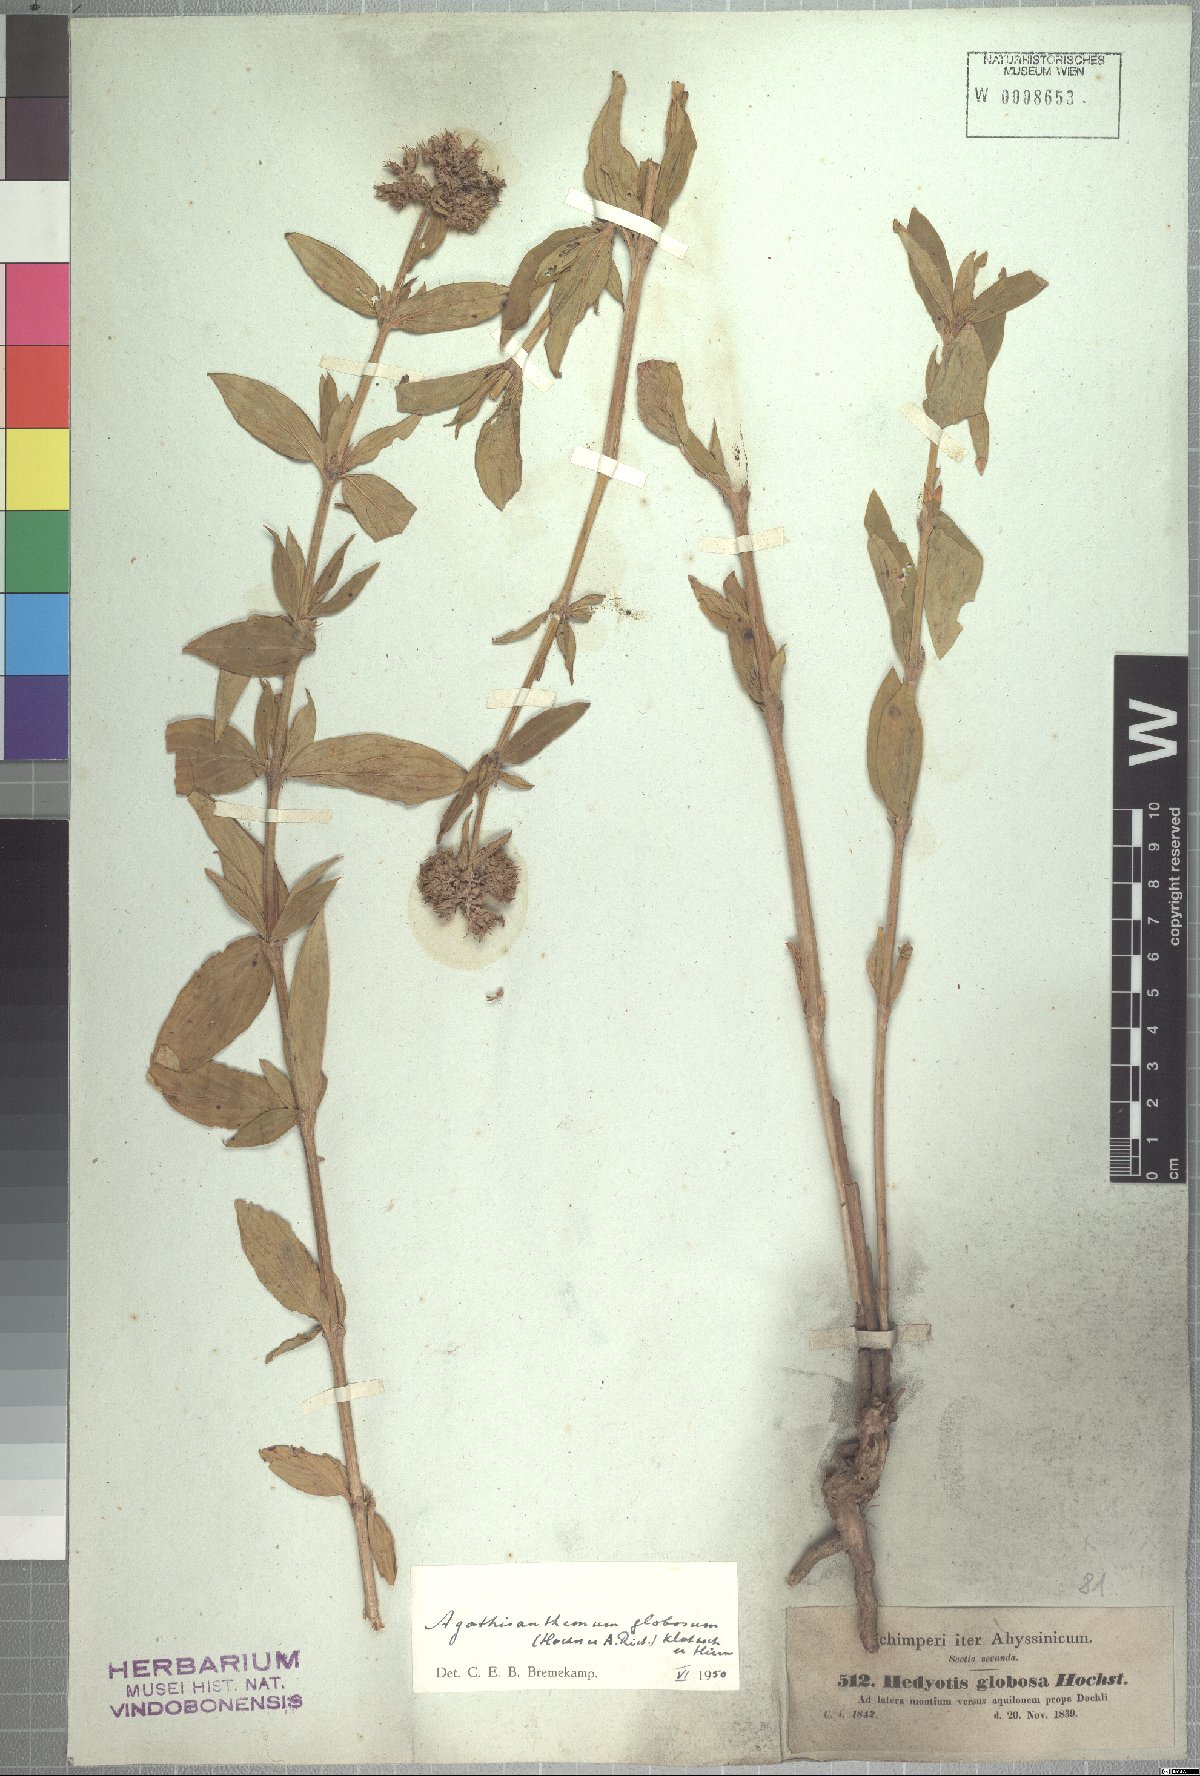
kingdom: Plantae
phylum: Tracheophyta
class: Magnoliopsida
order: Gentianales
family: Rubiaceae
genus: Agathisanthemum
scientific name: Agathisanthemum globosum
